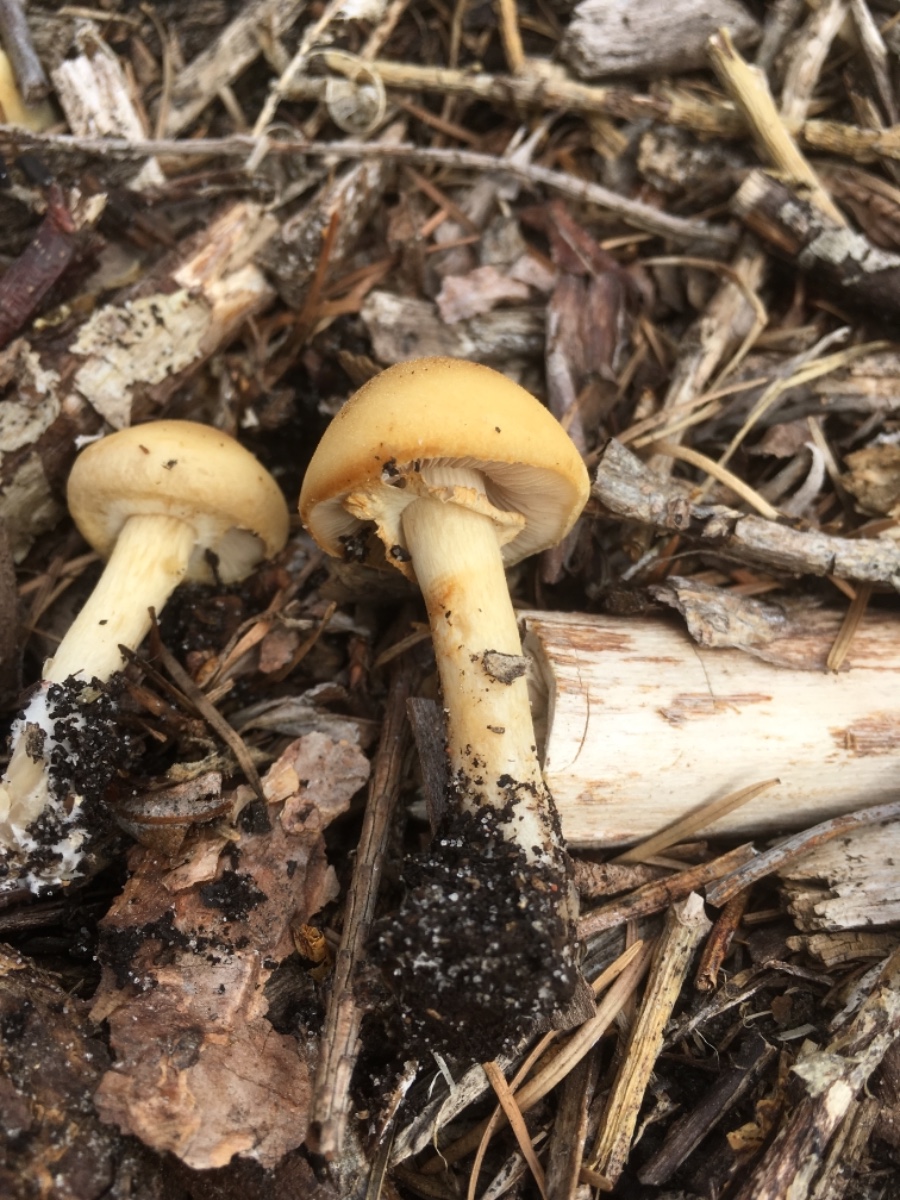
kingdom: Fungi
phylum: Basidiomycota
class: Agaricomycetes
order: Agaricales
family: Strophariaceae
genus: Agrocybe
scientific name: Agrocybe praecox
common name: tidlig agerhat
